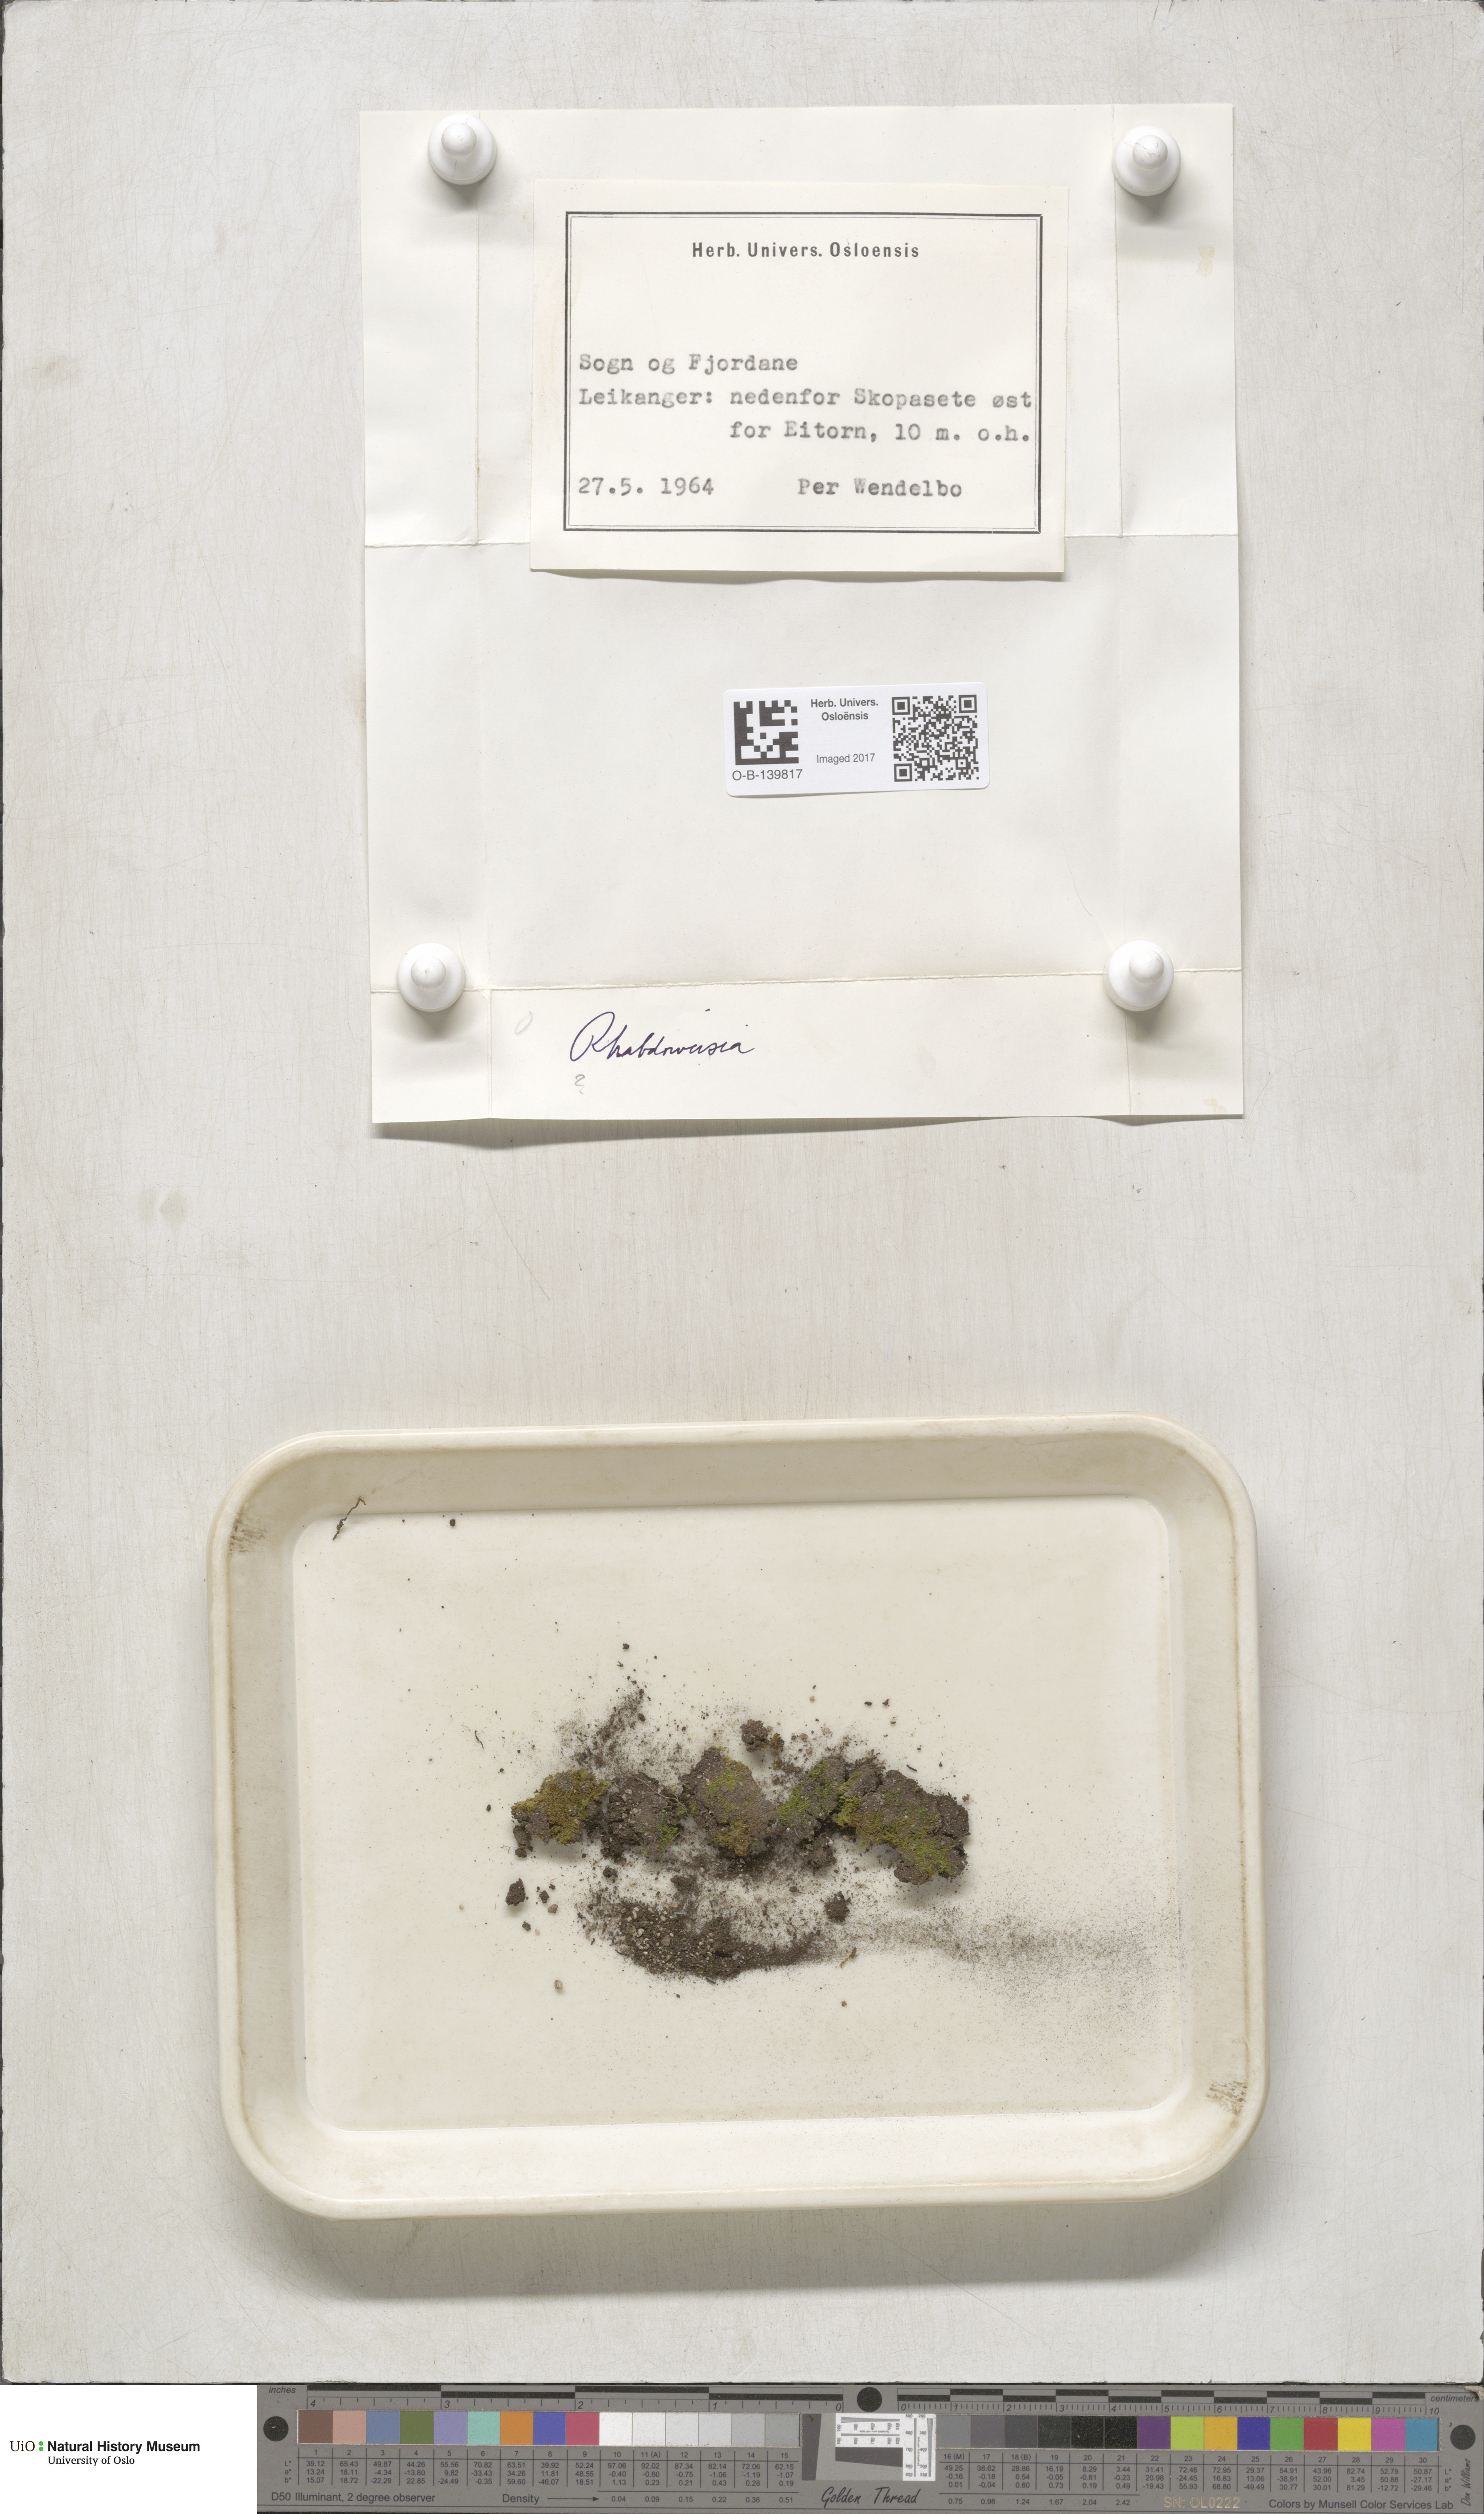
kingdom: Plantae
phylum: Bryophyta
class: Bryopsida
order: Dicranales
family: Rhabdoweisiaceae
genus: Rhabdoweisia
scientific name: Rhabdoweisia
